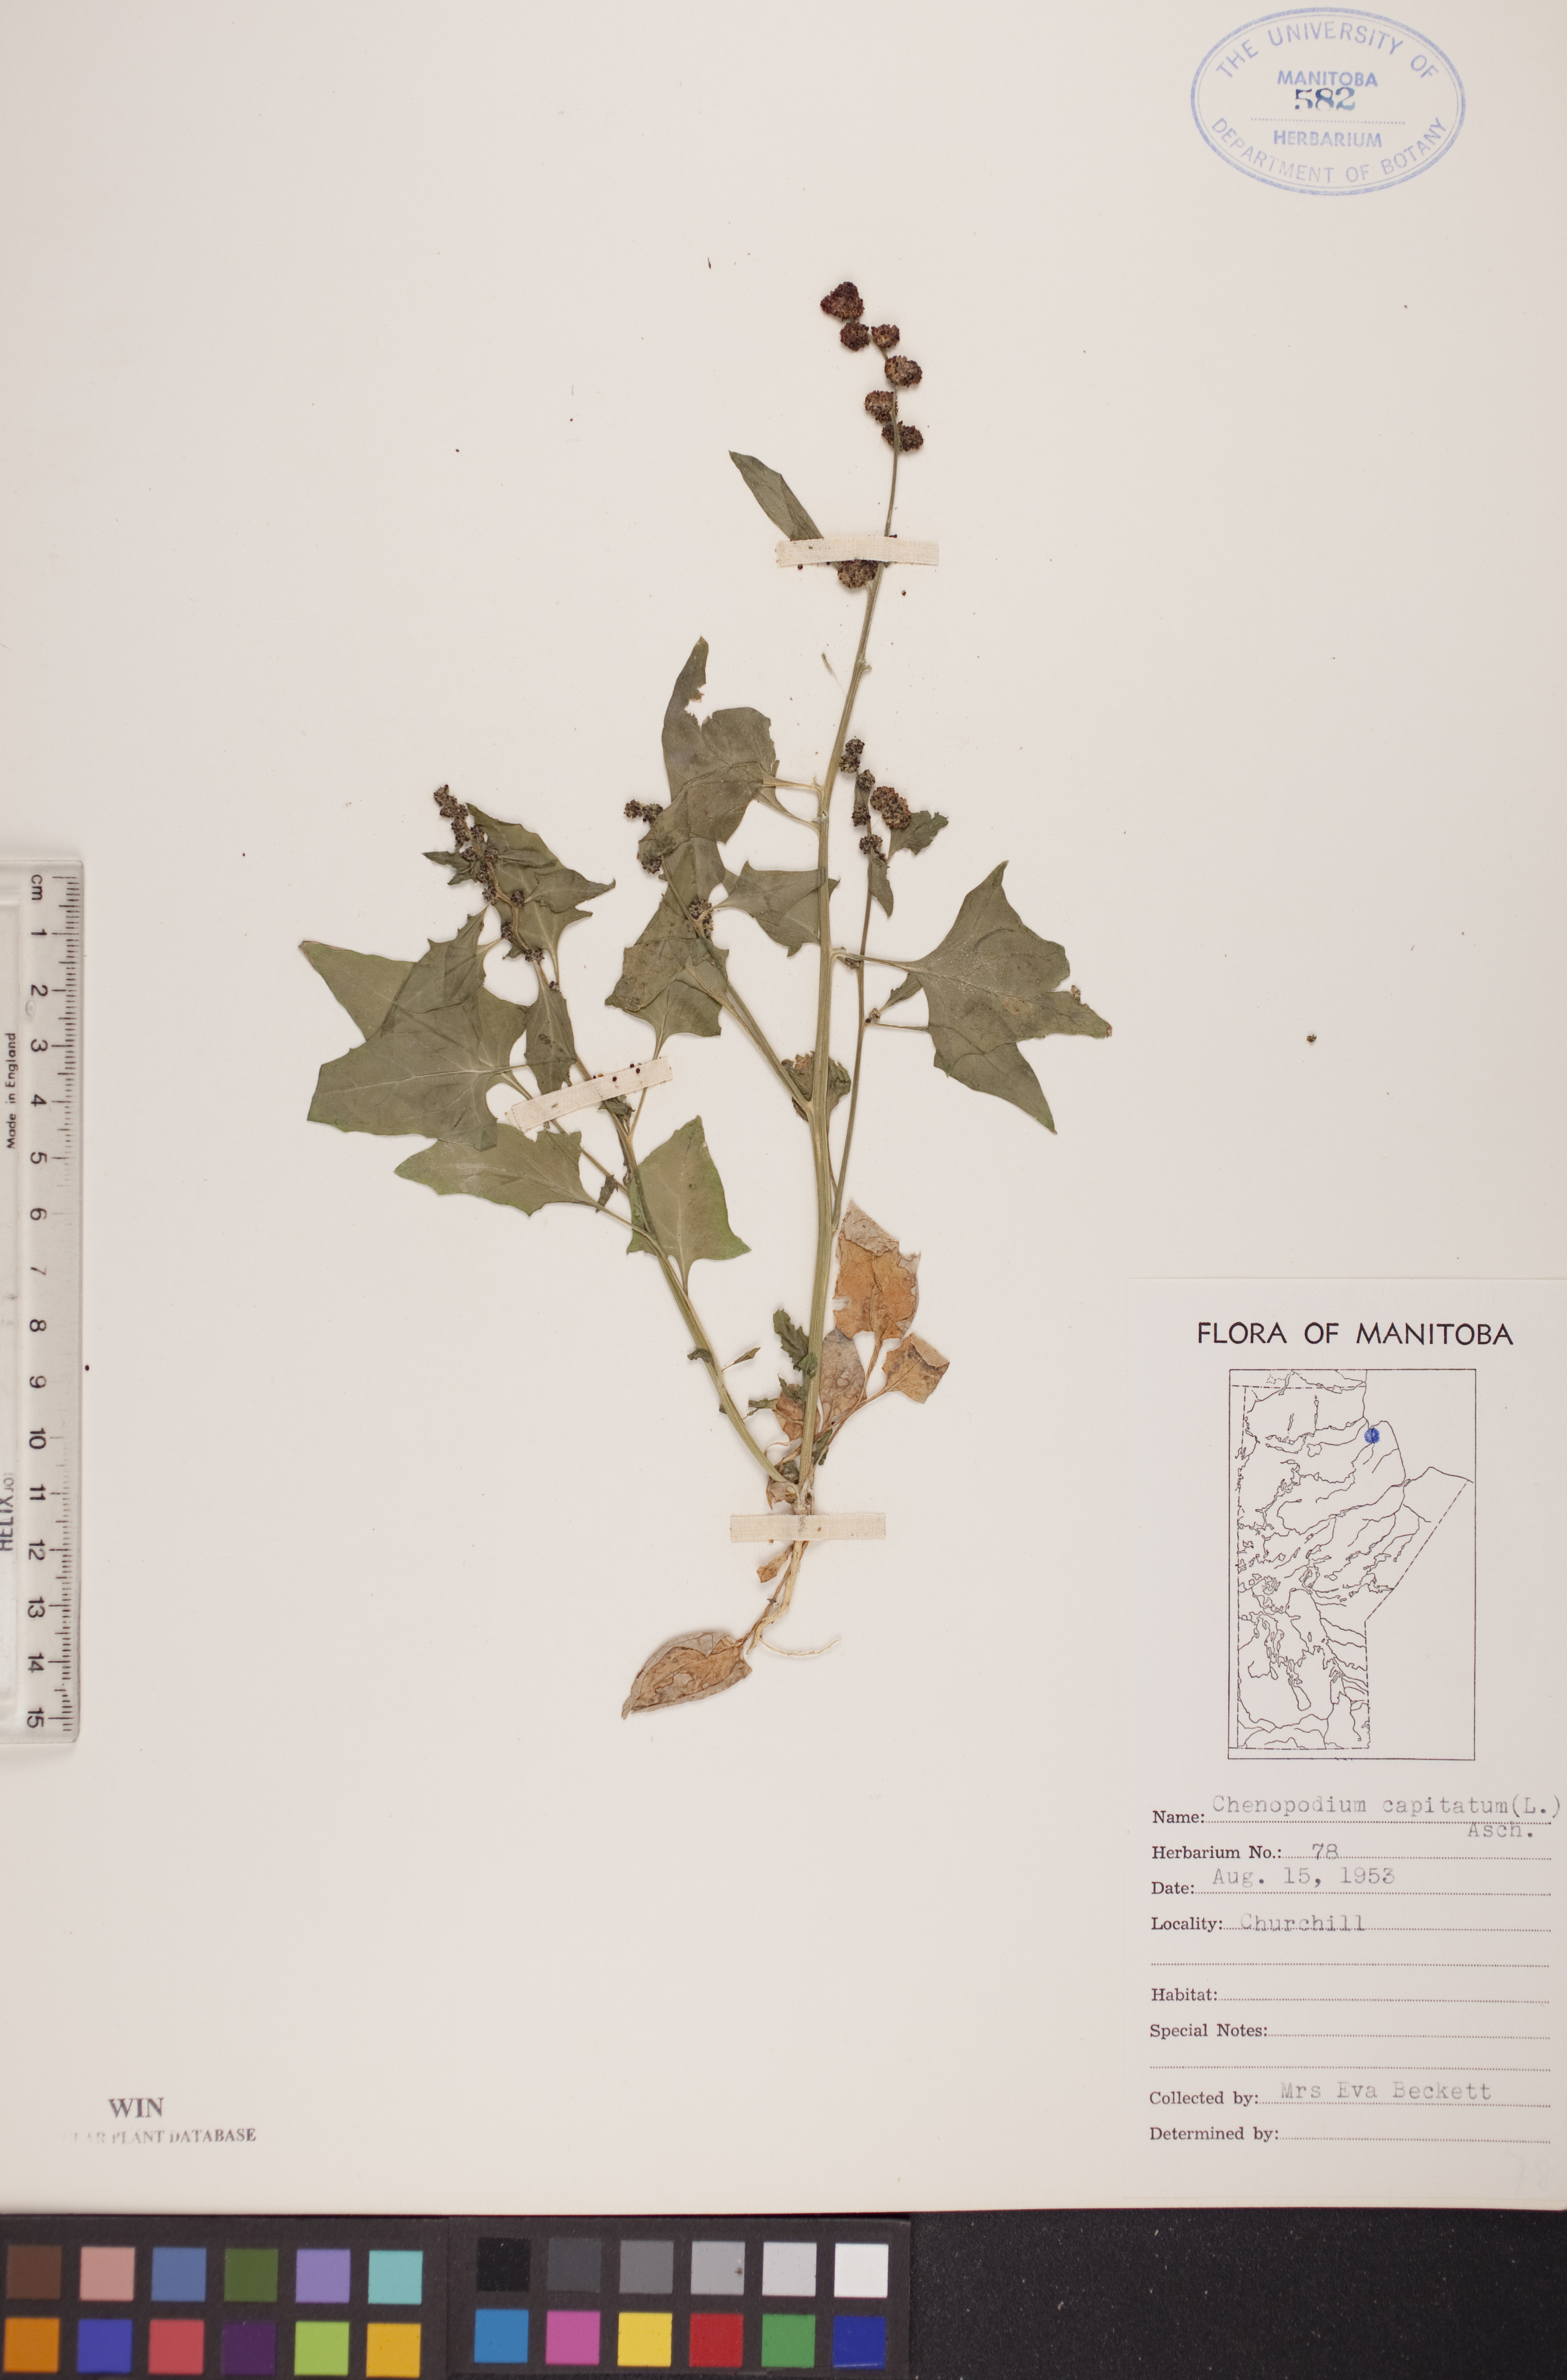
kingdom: Plantae
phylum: Tracheophyta
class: Magnoliopsida
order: Caryophyllales
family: Amaranthaceae
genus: Blitum
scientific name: Blitum capitatum
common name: Strawberry-blight
